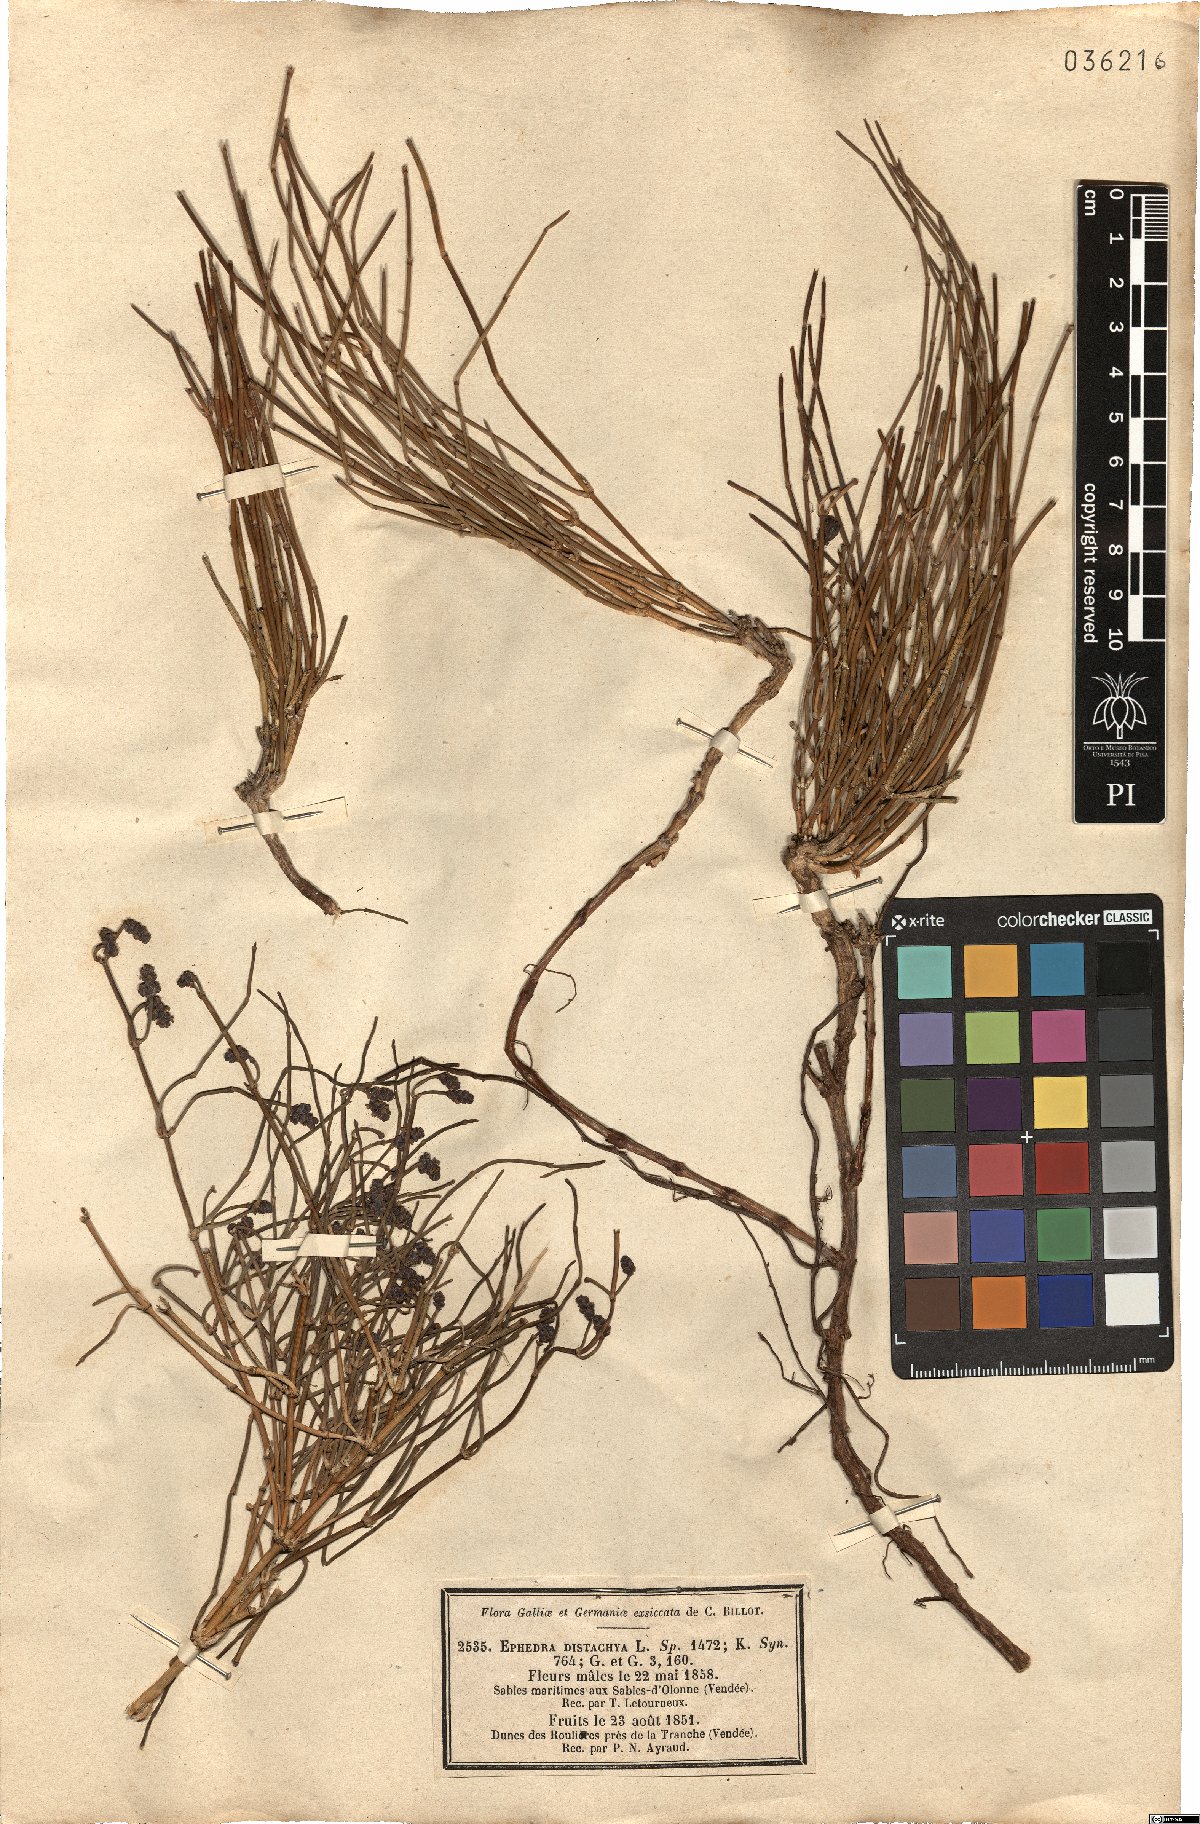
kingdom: Plantae
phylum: Tracheophyta
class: Gnetopsida
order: Ephedrales
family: Ephedraceae
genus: Ephedra
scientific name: Ephedra distachya
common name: Sea grape
